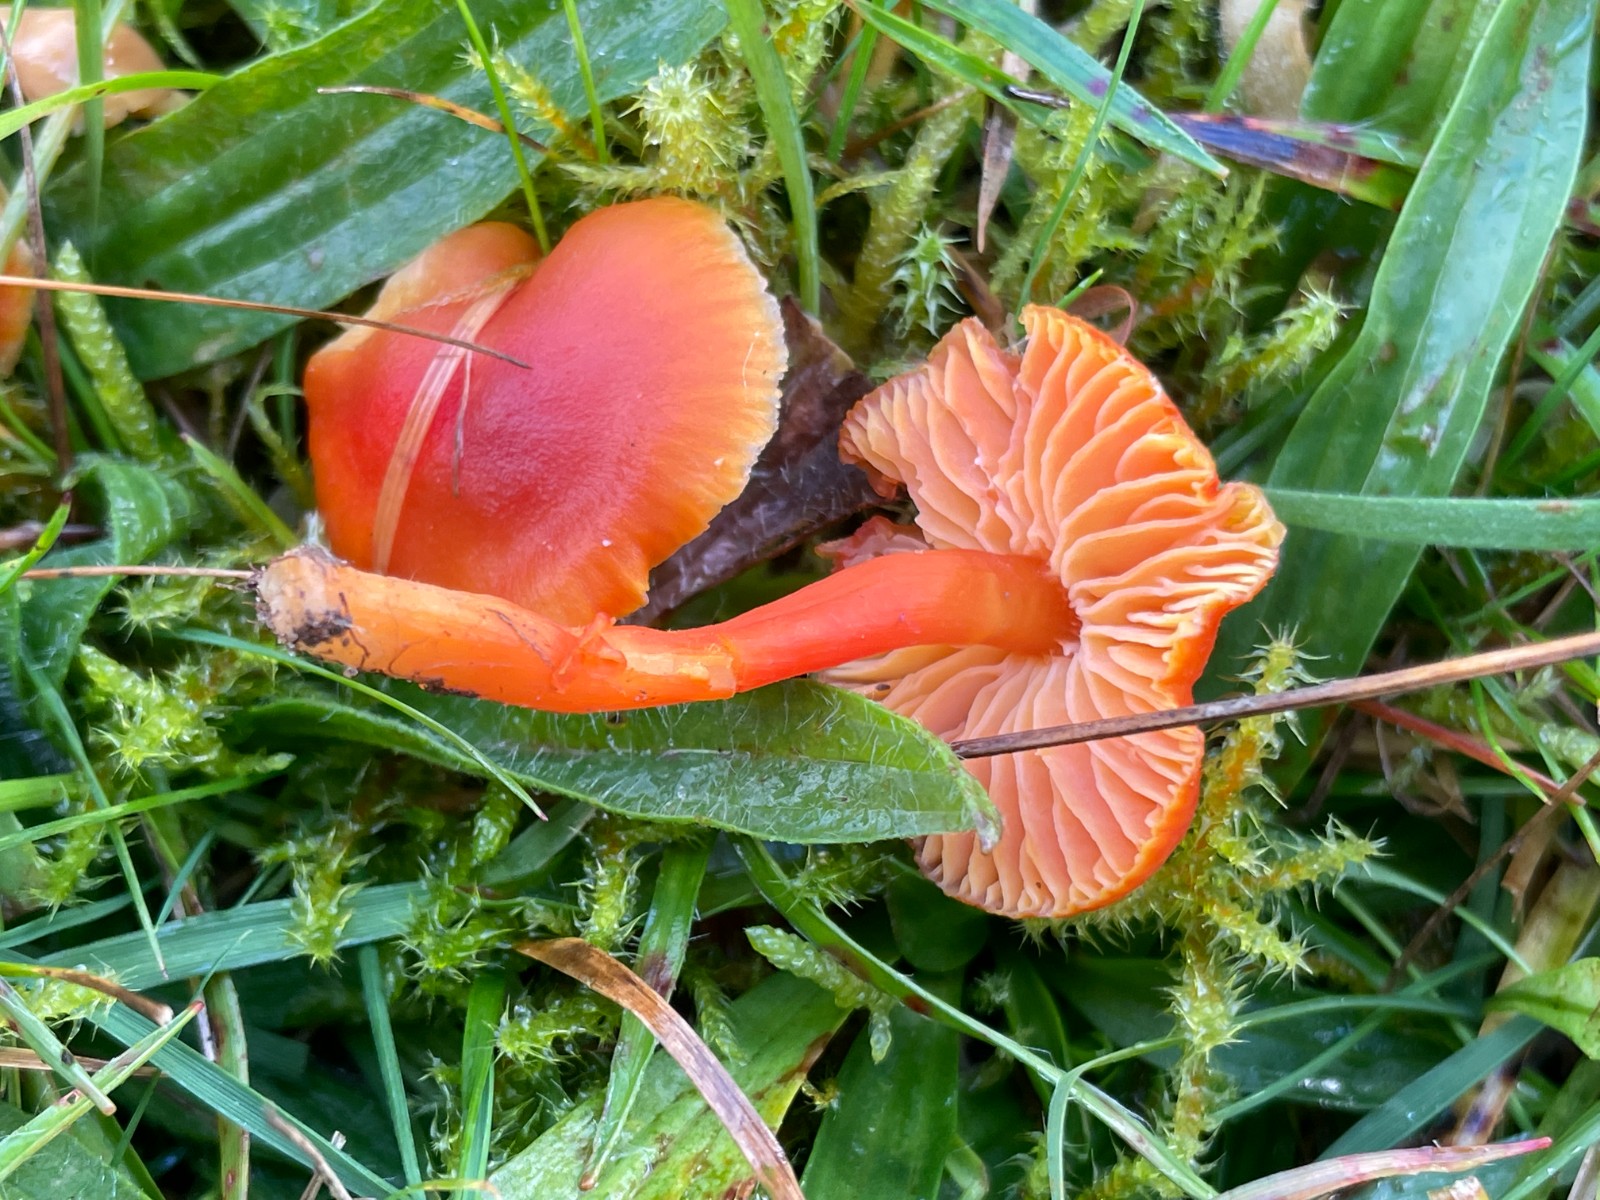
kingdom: Fungi
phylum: Basidiomycota
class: Agaricomycetes
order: Agaricales
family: Hygrophoraceae
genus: Hygrocybe
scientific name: Hygrocybe miniata
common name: mønje-vokshat
